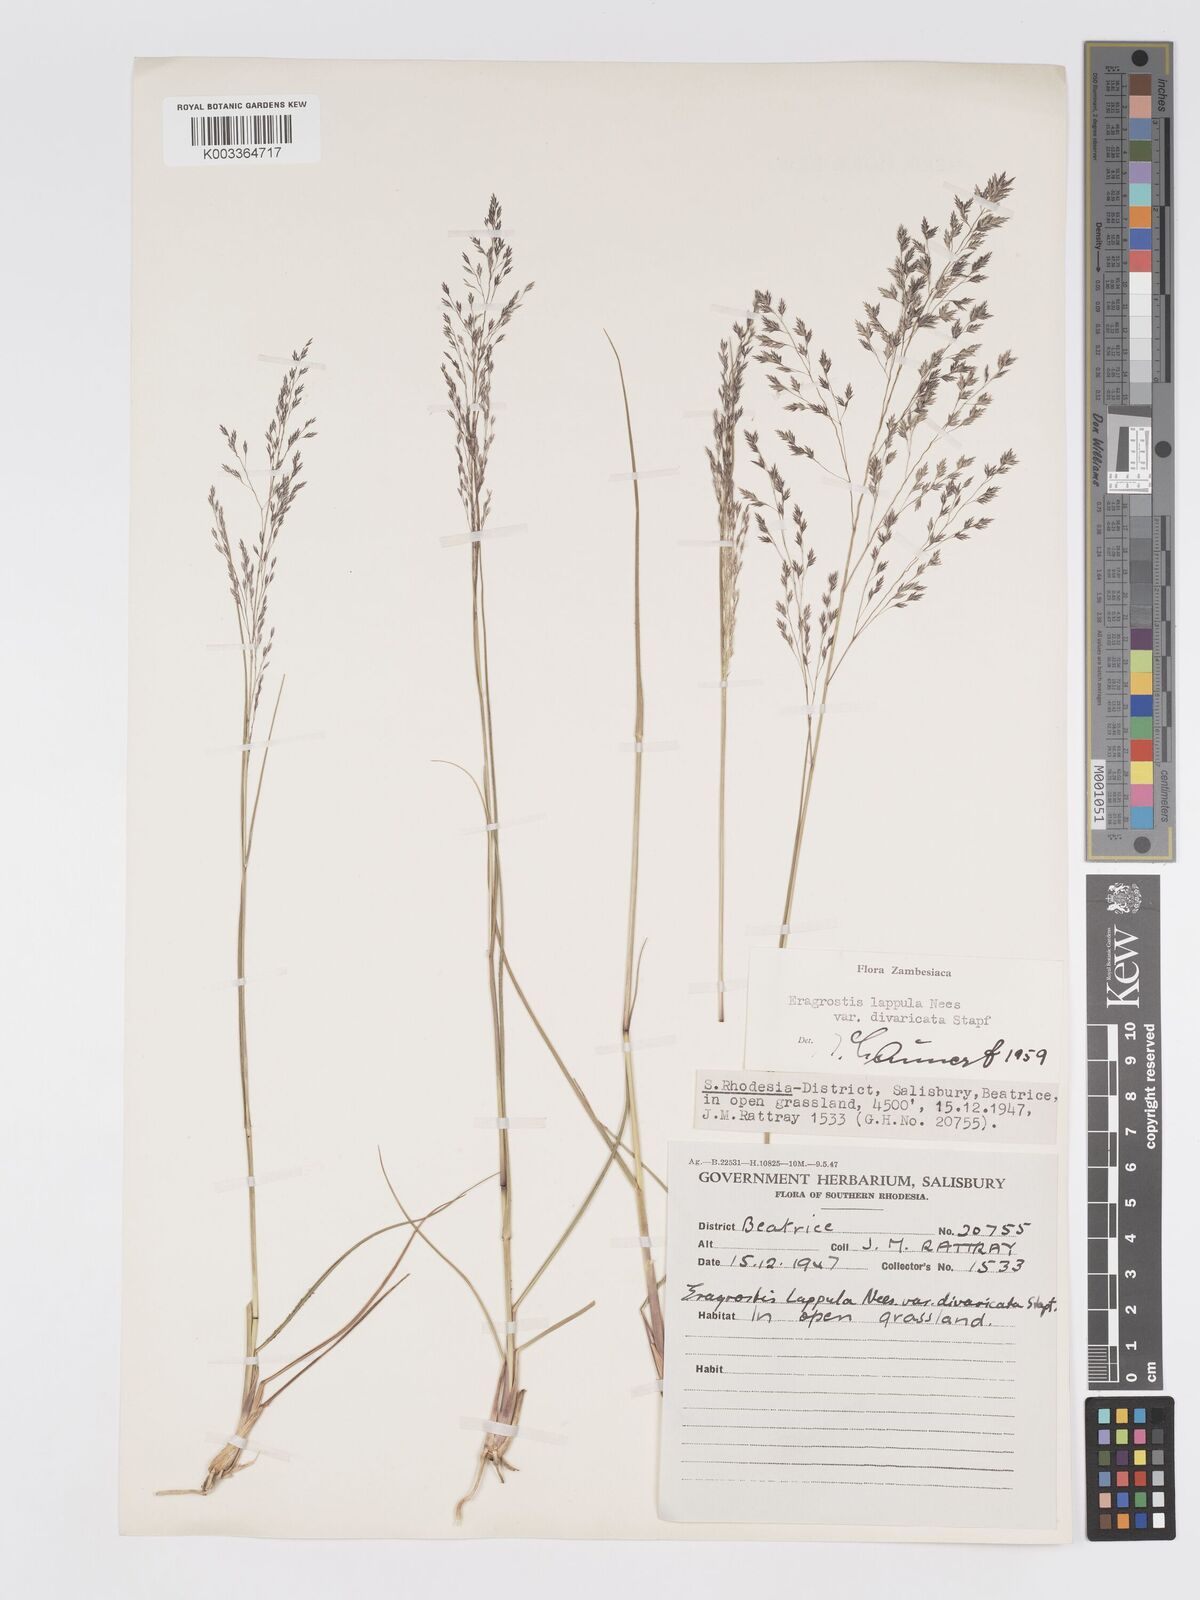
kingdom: Plantae
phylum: Tracheophyta
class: Liliopsida
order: Poales
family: Poaceae
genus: Eragrostis
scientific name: Eragrostis lappula
